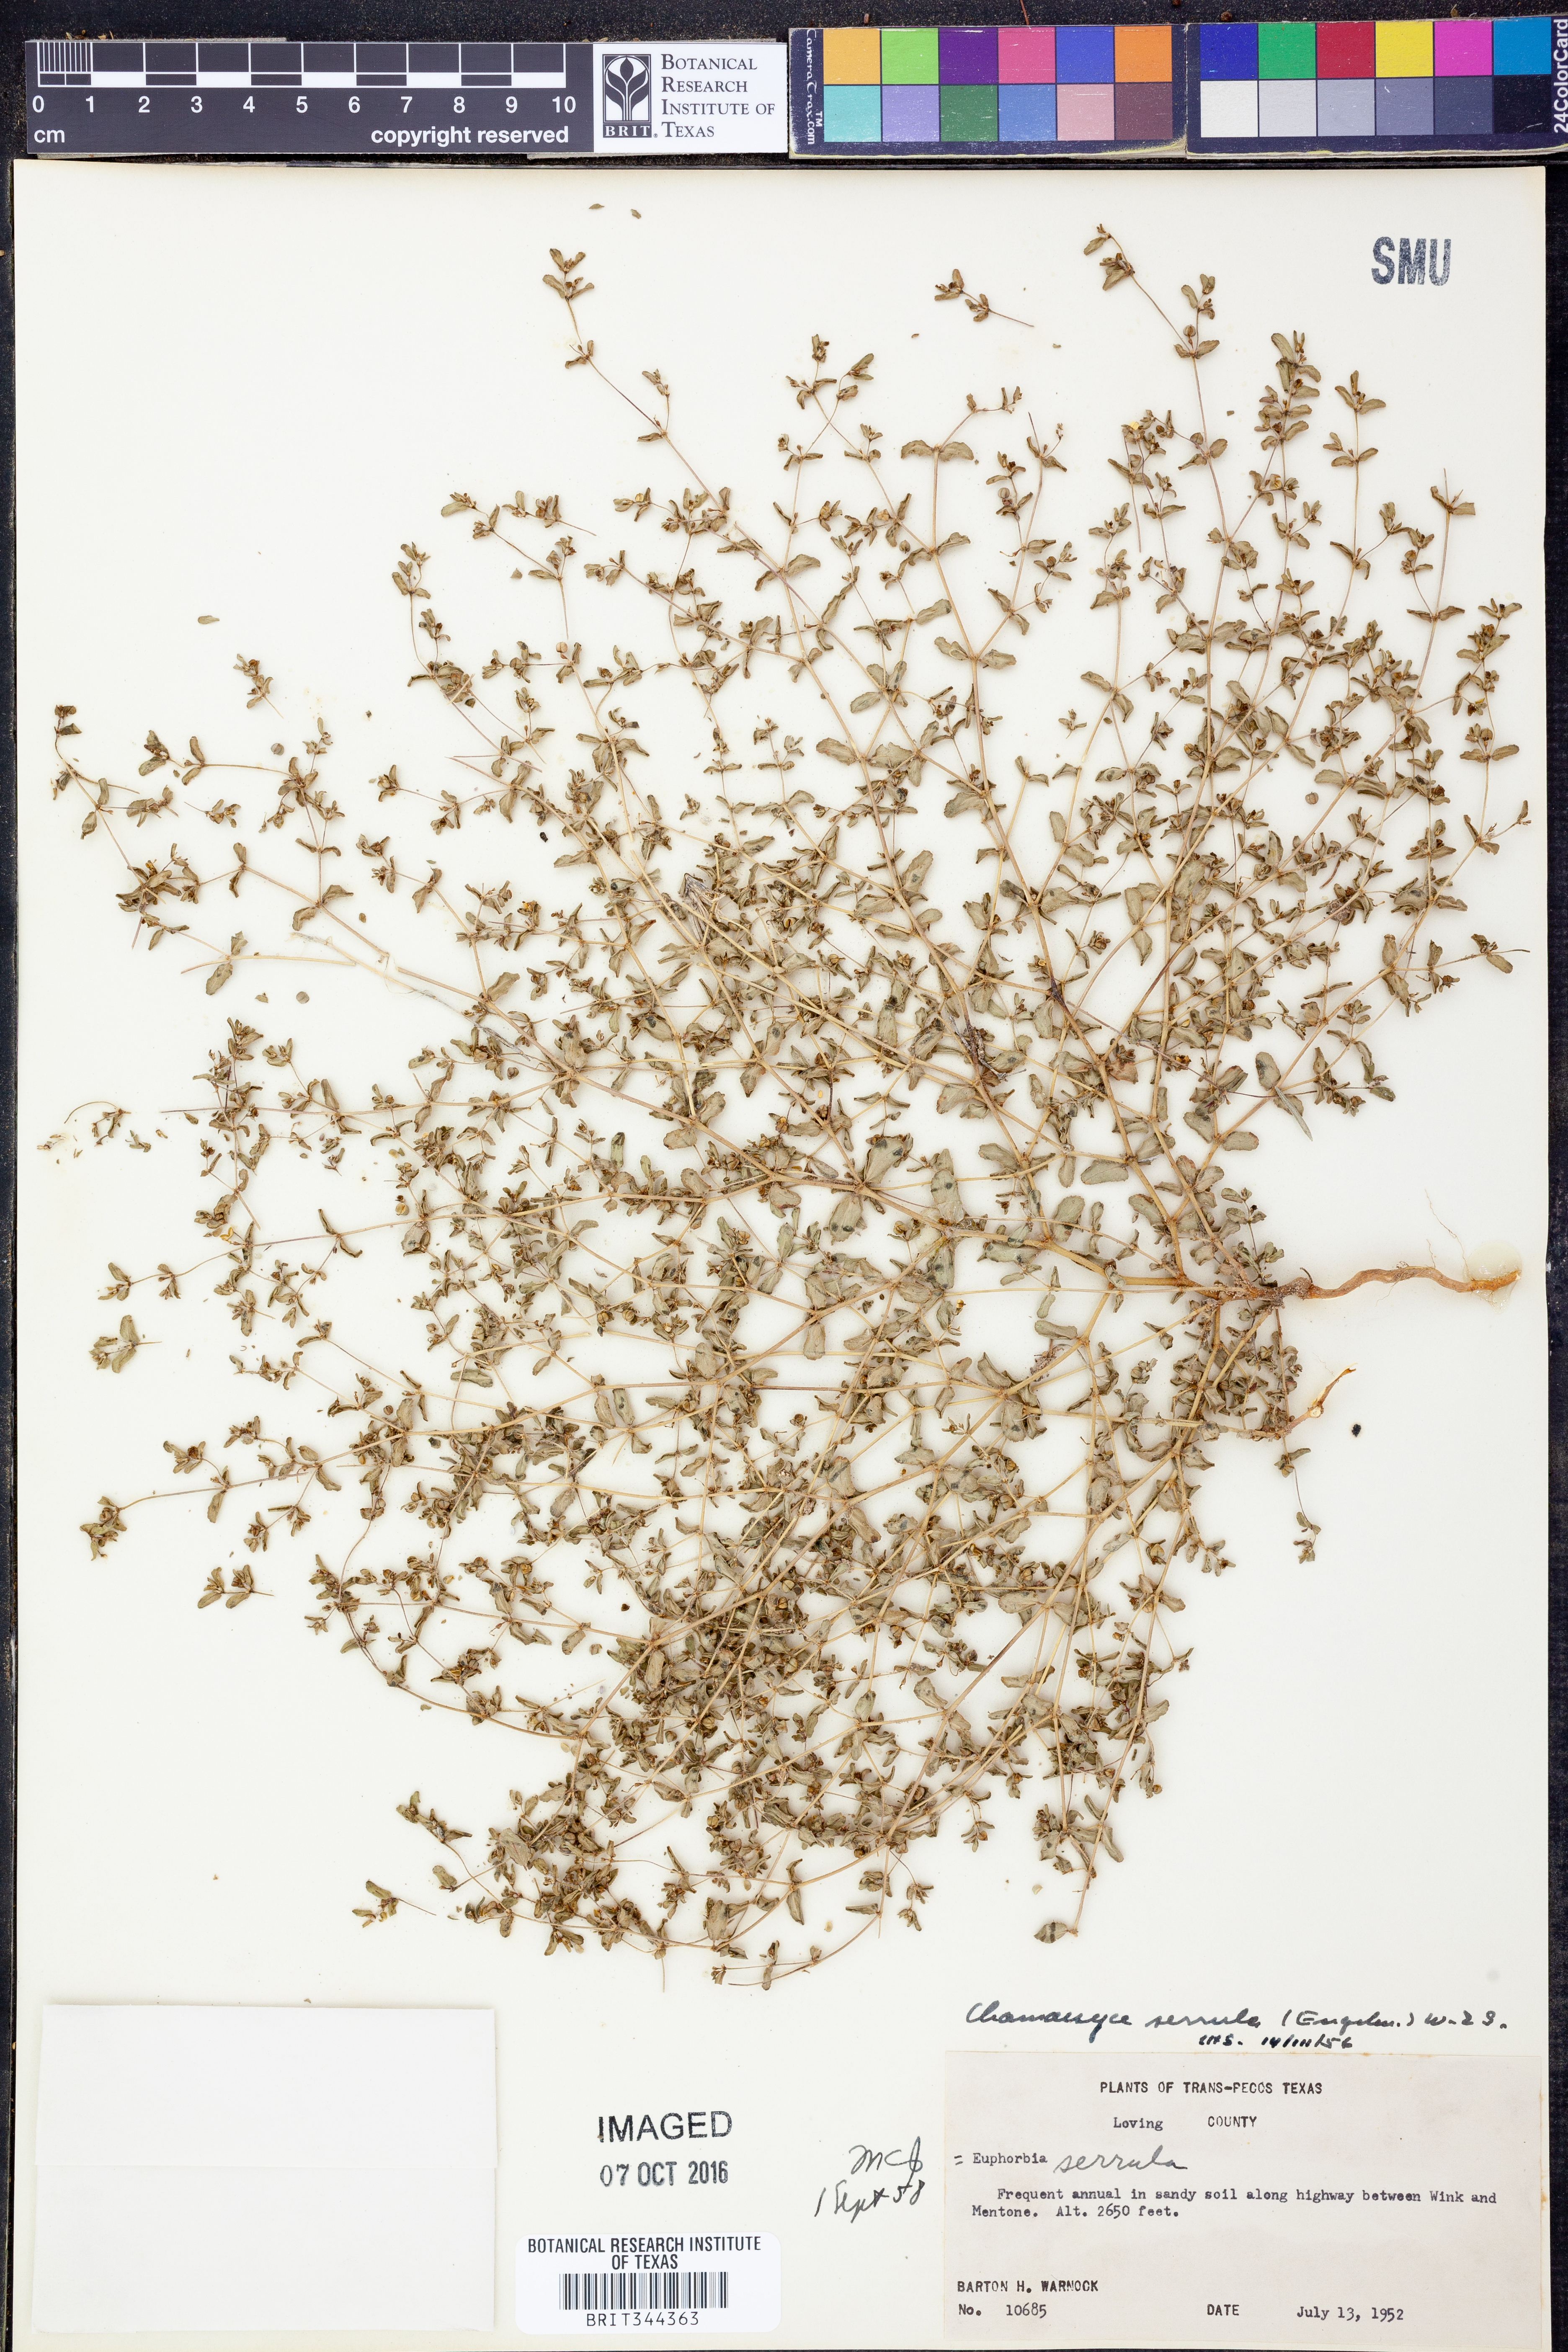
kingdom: Plantae
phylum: Tracheophyta
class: Magnoliopsida
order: Malpighiales
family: Euphorbiaceae
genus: Euphorbia
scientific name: Euphorbia serrula
